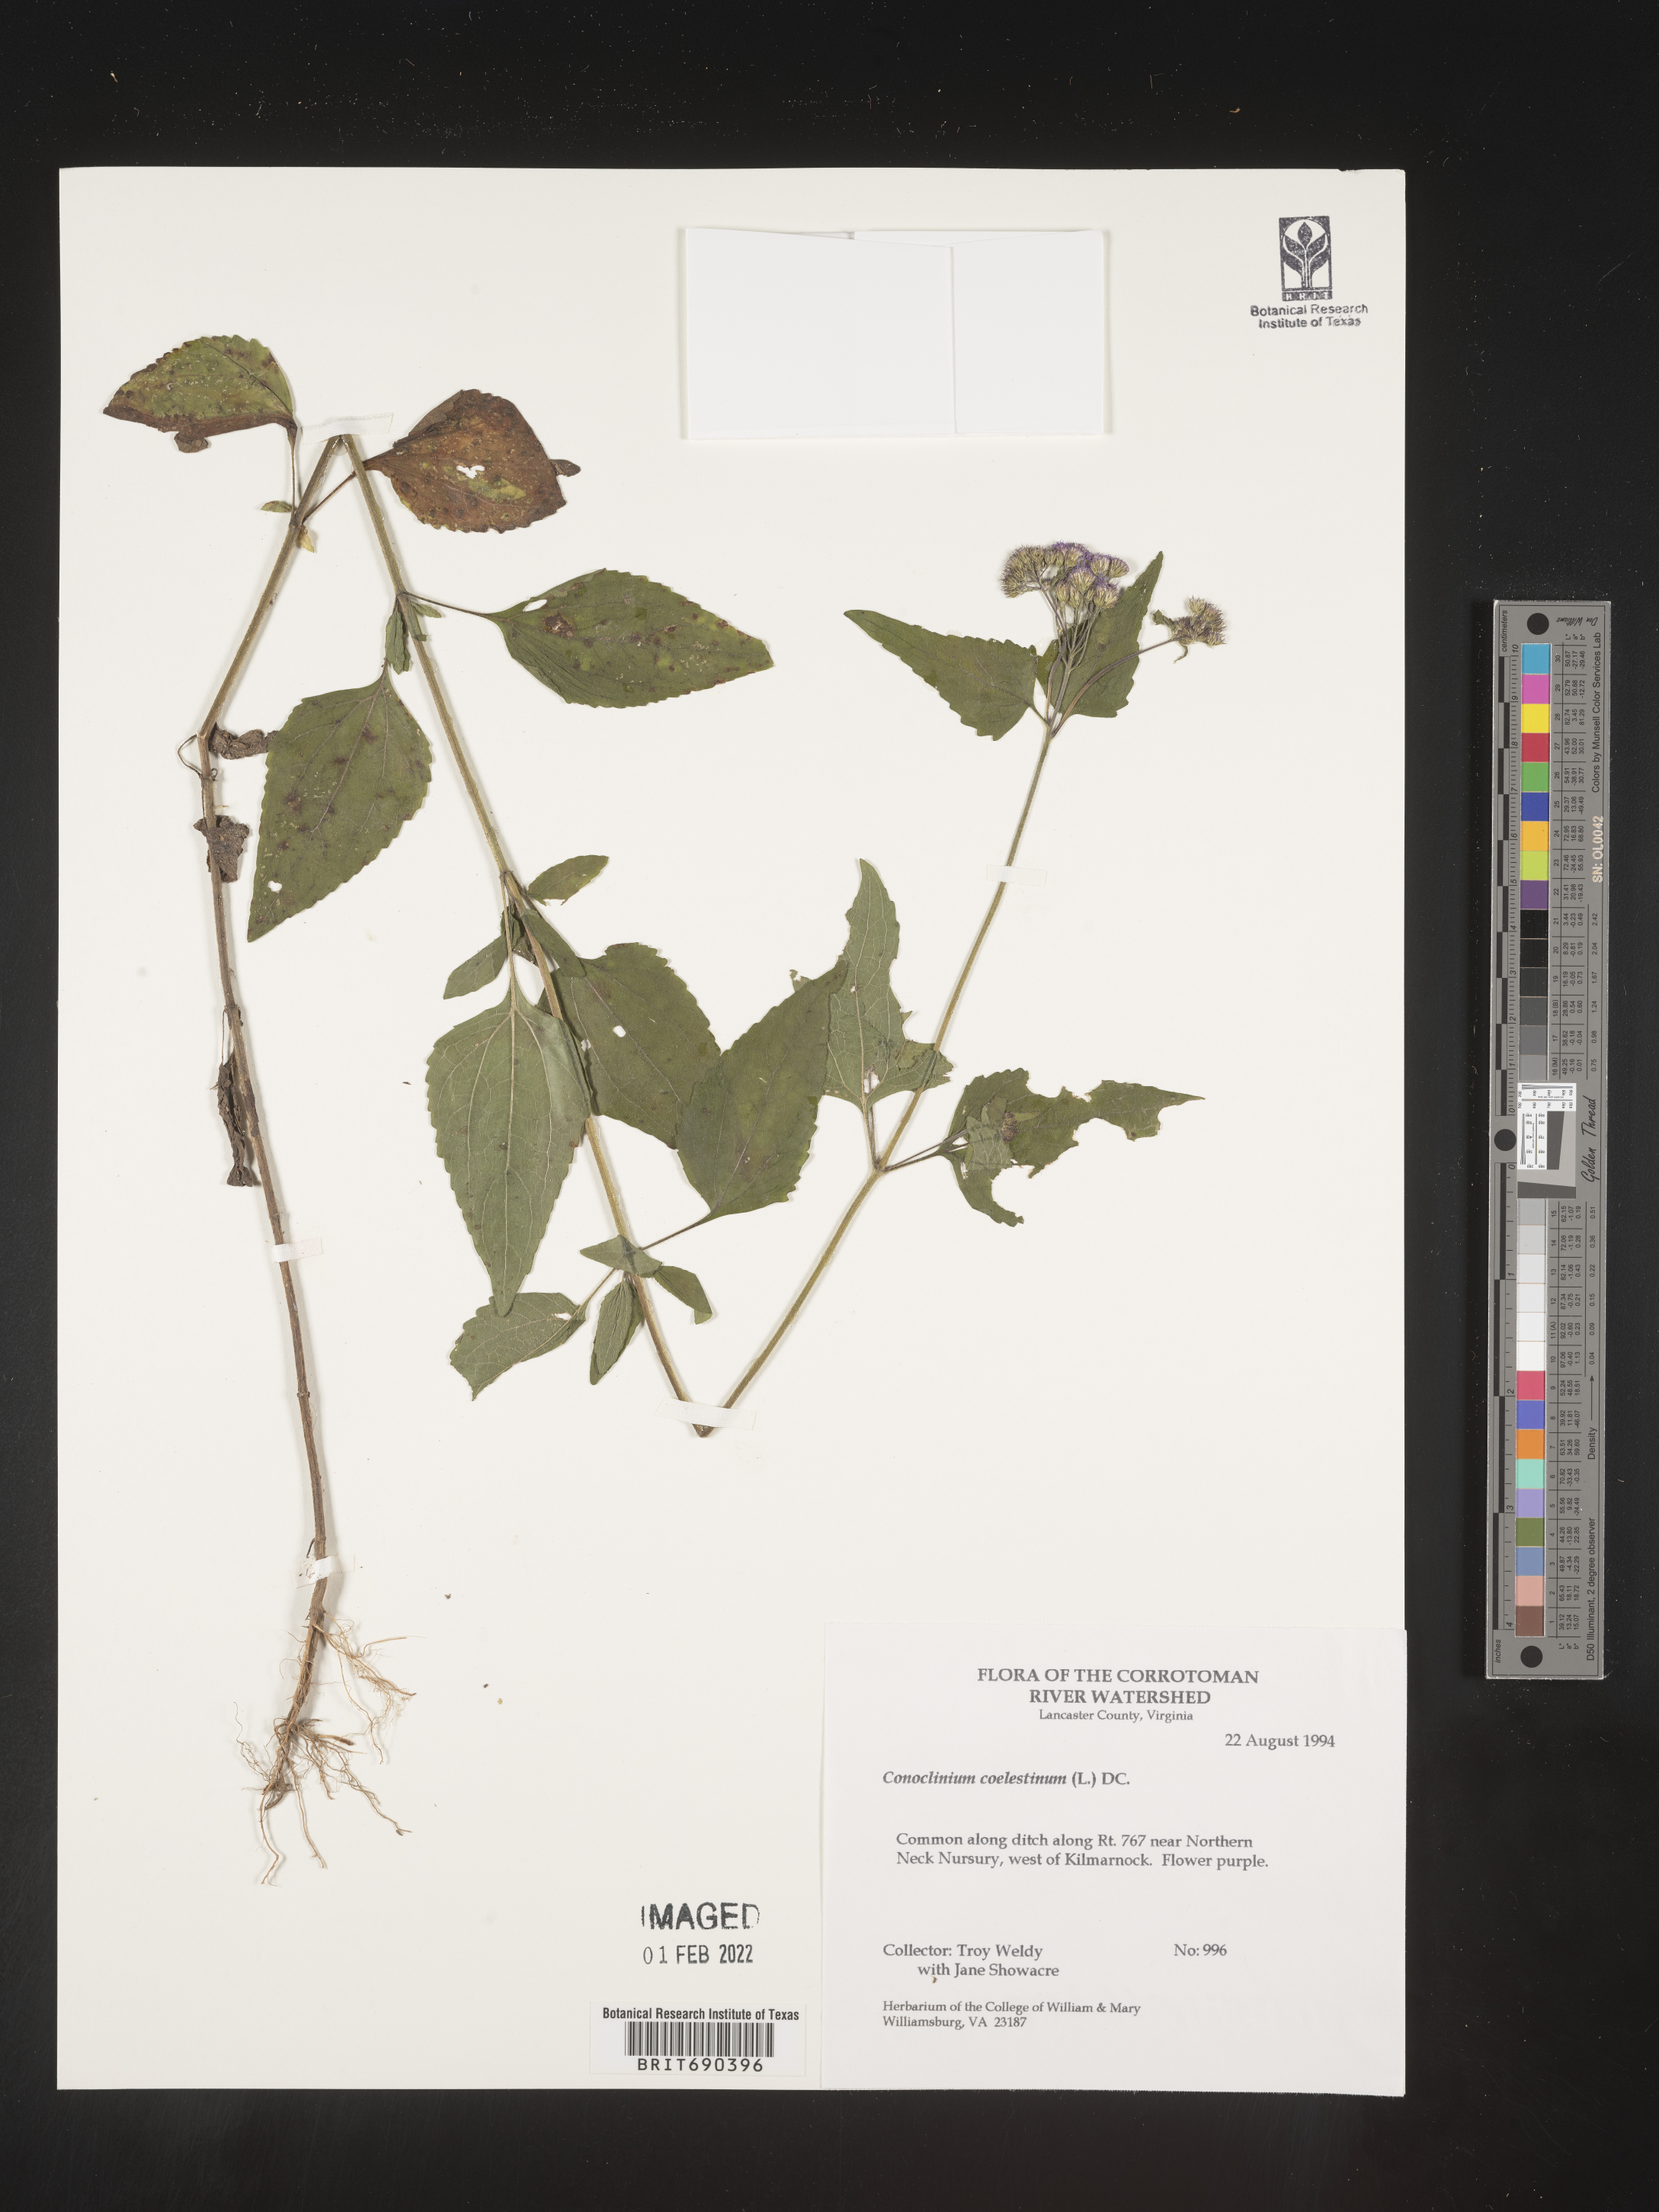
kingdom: Plantae
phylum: Tracheophyta
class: Magnoliopsida
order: Asterales
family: Asteraceae
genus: Conoclinium
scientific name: Conoclinium coelestinum
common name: Blue mistflower
